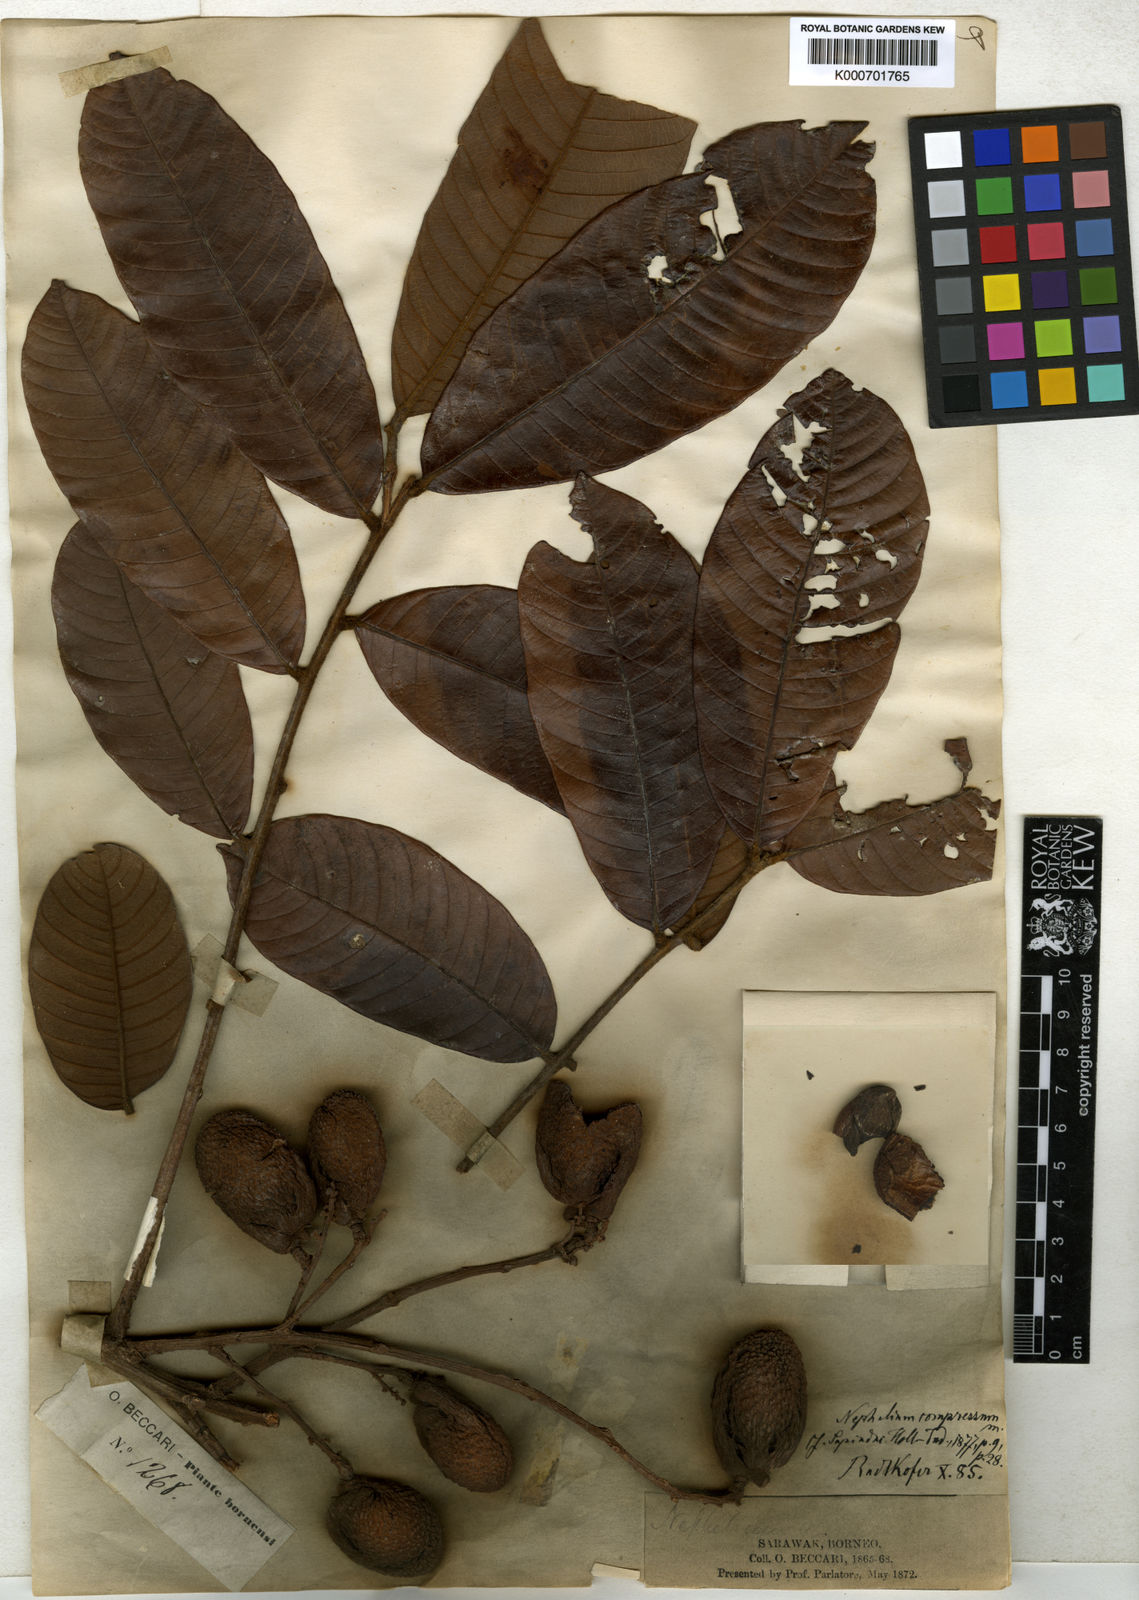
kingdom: Plantae
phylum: Tracheophyta
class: Magnoliopsida
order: Sapindales
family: Sapindaceae
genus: Nephelium
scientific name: Nephelium compressum
